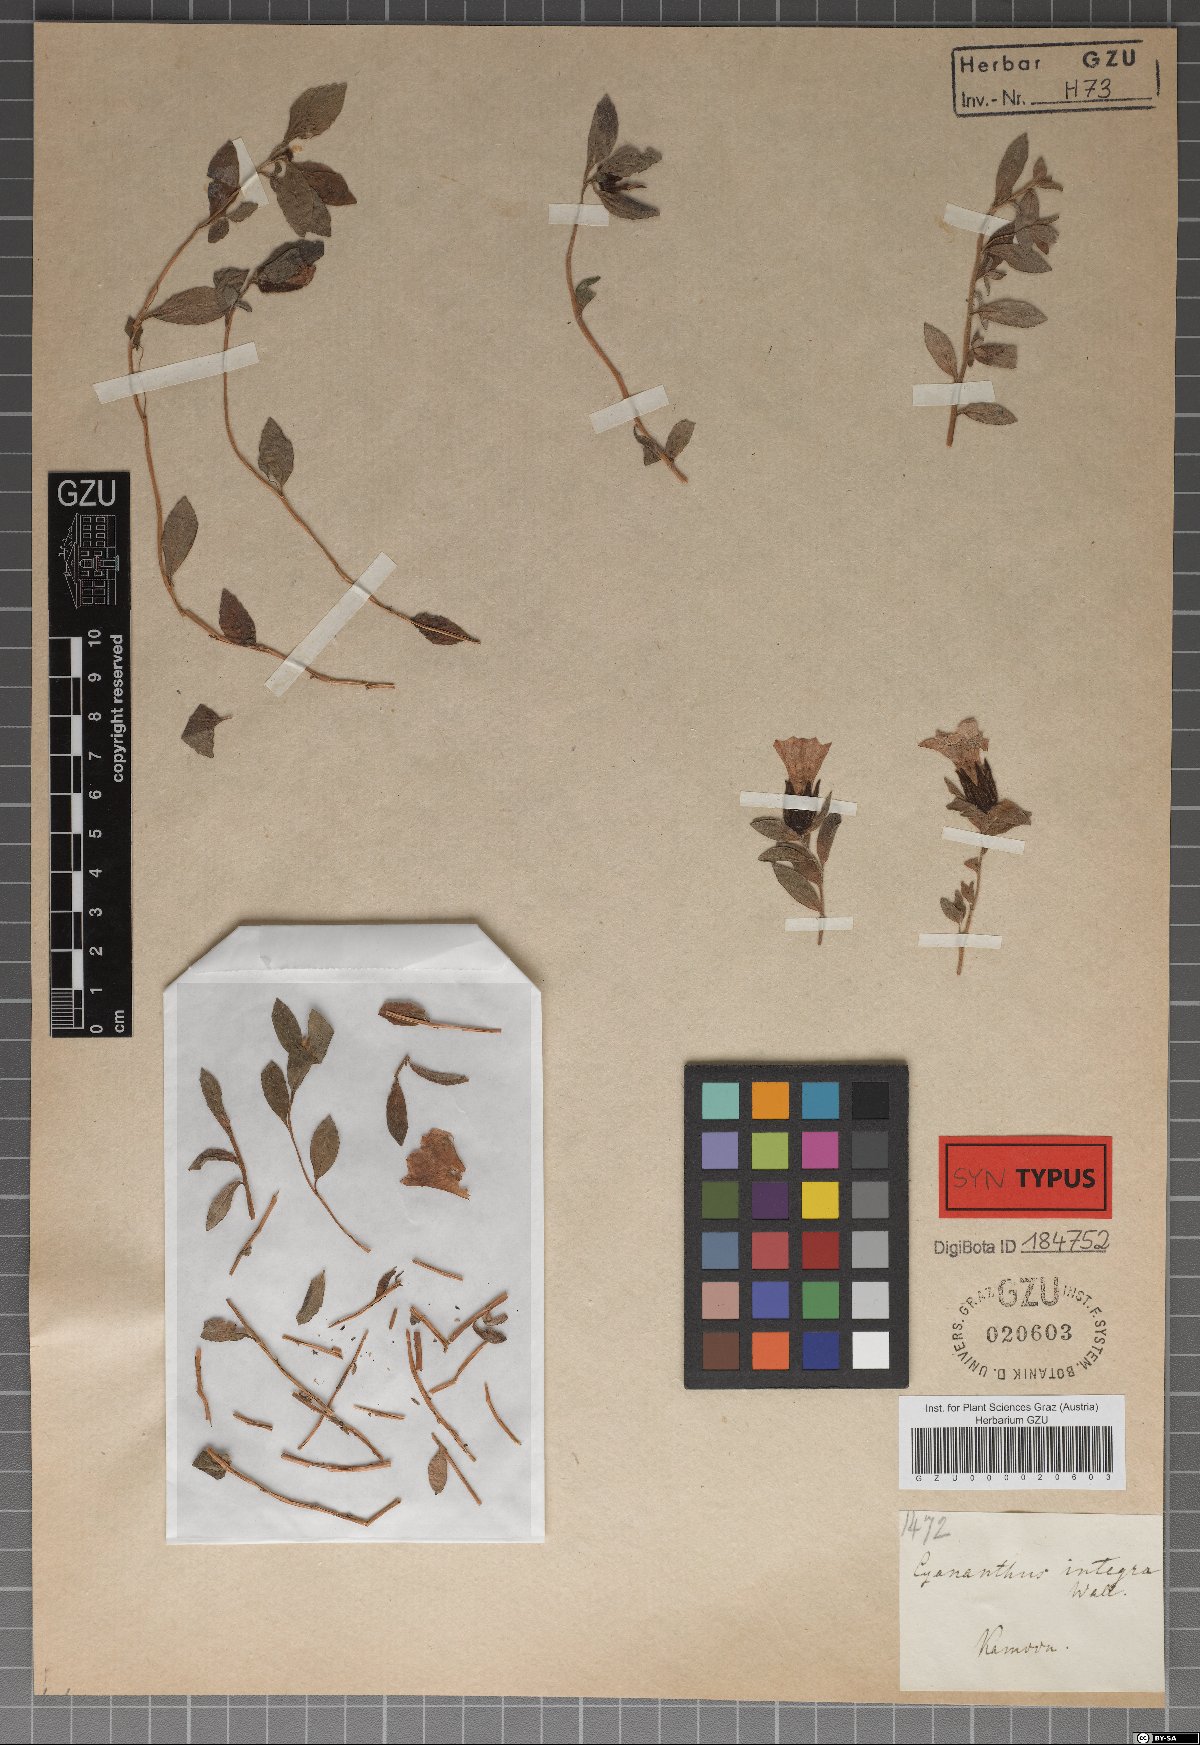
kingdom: Plantae
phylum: Tracheophyta
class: Magnoliopsida
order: Asterales
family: Campanulaceae
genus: Cyananthus
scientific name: Cyananthus integer
